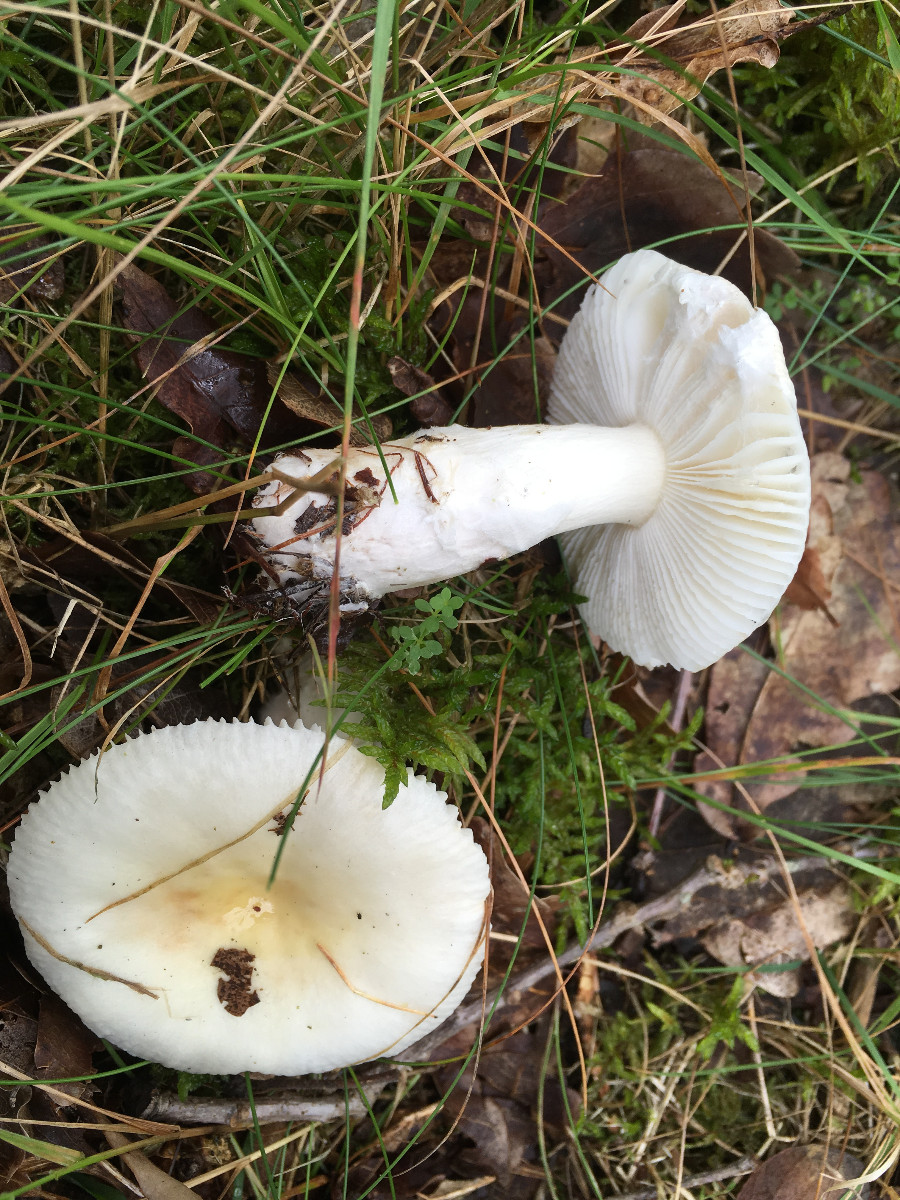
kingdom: Fungi
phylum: Basidiomycota
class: Agaricomycetes
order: Russulales
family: Russulaceae
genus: Russula
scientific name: Russula
